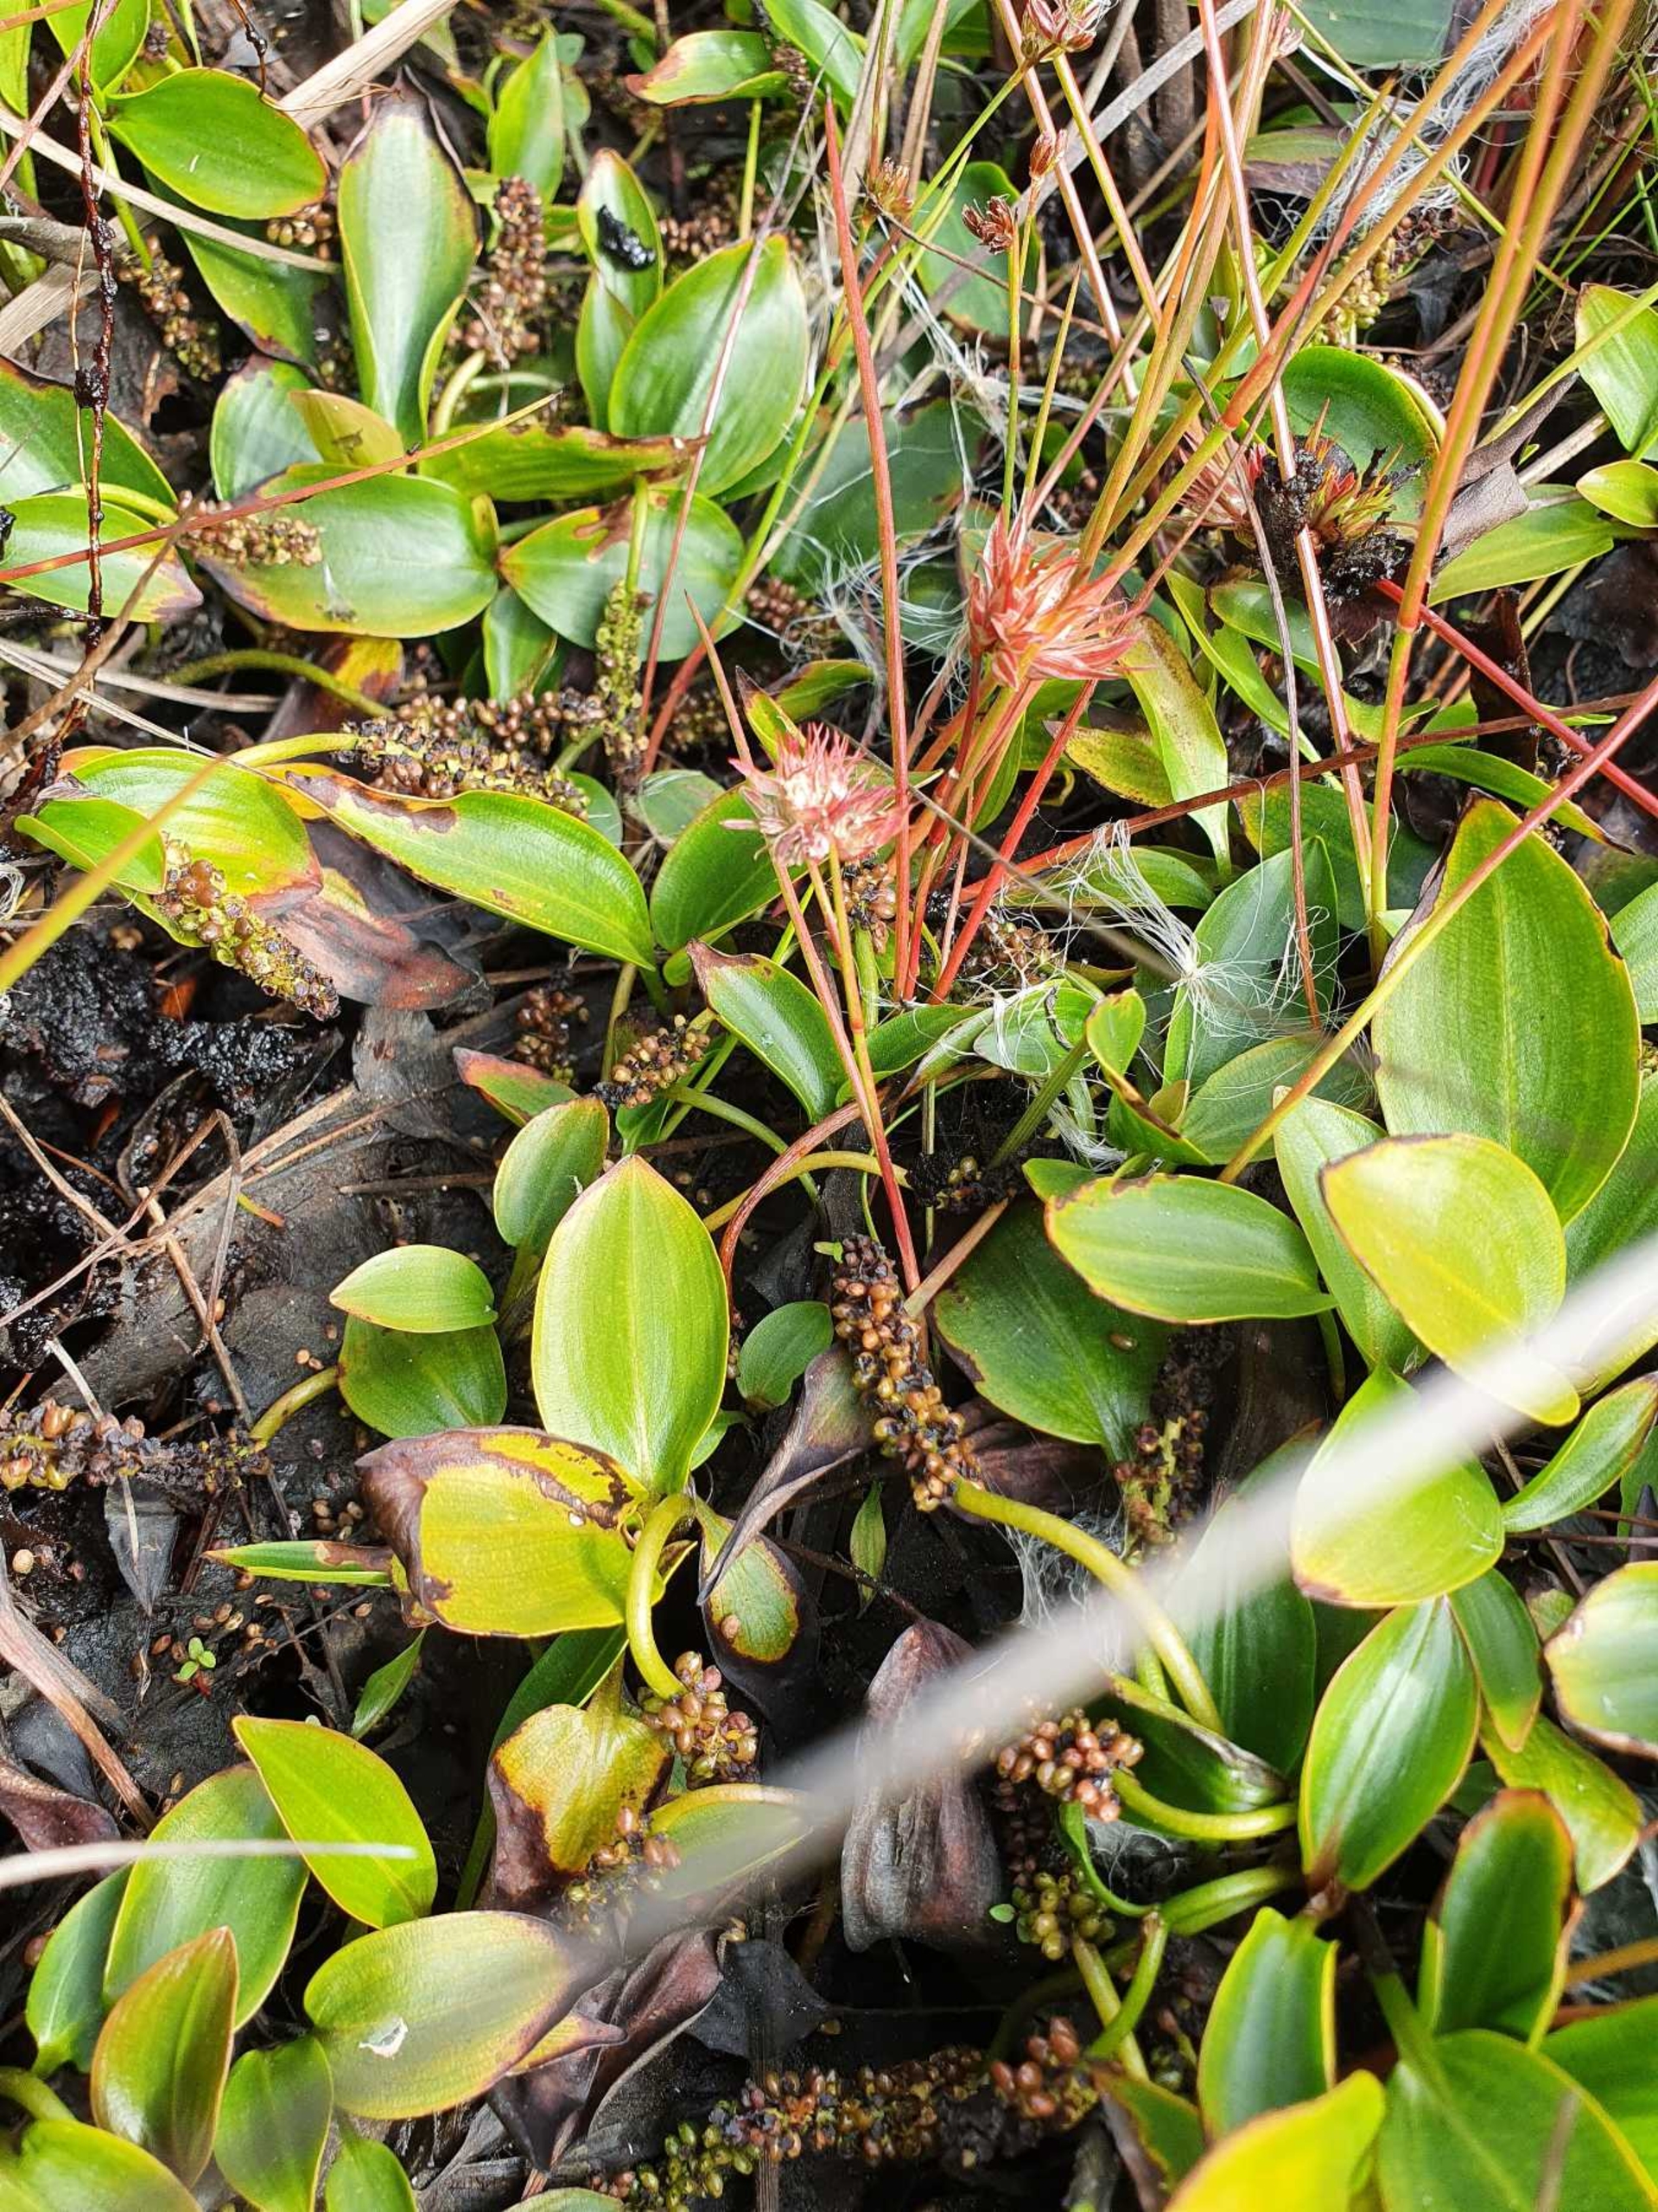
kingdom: Plantae
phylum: Tracheophyta
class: Liliopsida
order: Poales
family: Juncaceae
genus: Juncus
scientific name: Juncus bulbosus
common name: Liden siv
